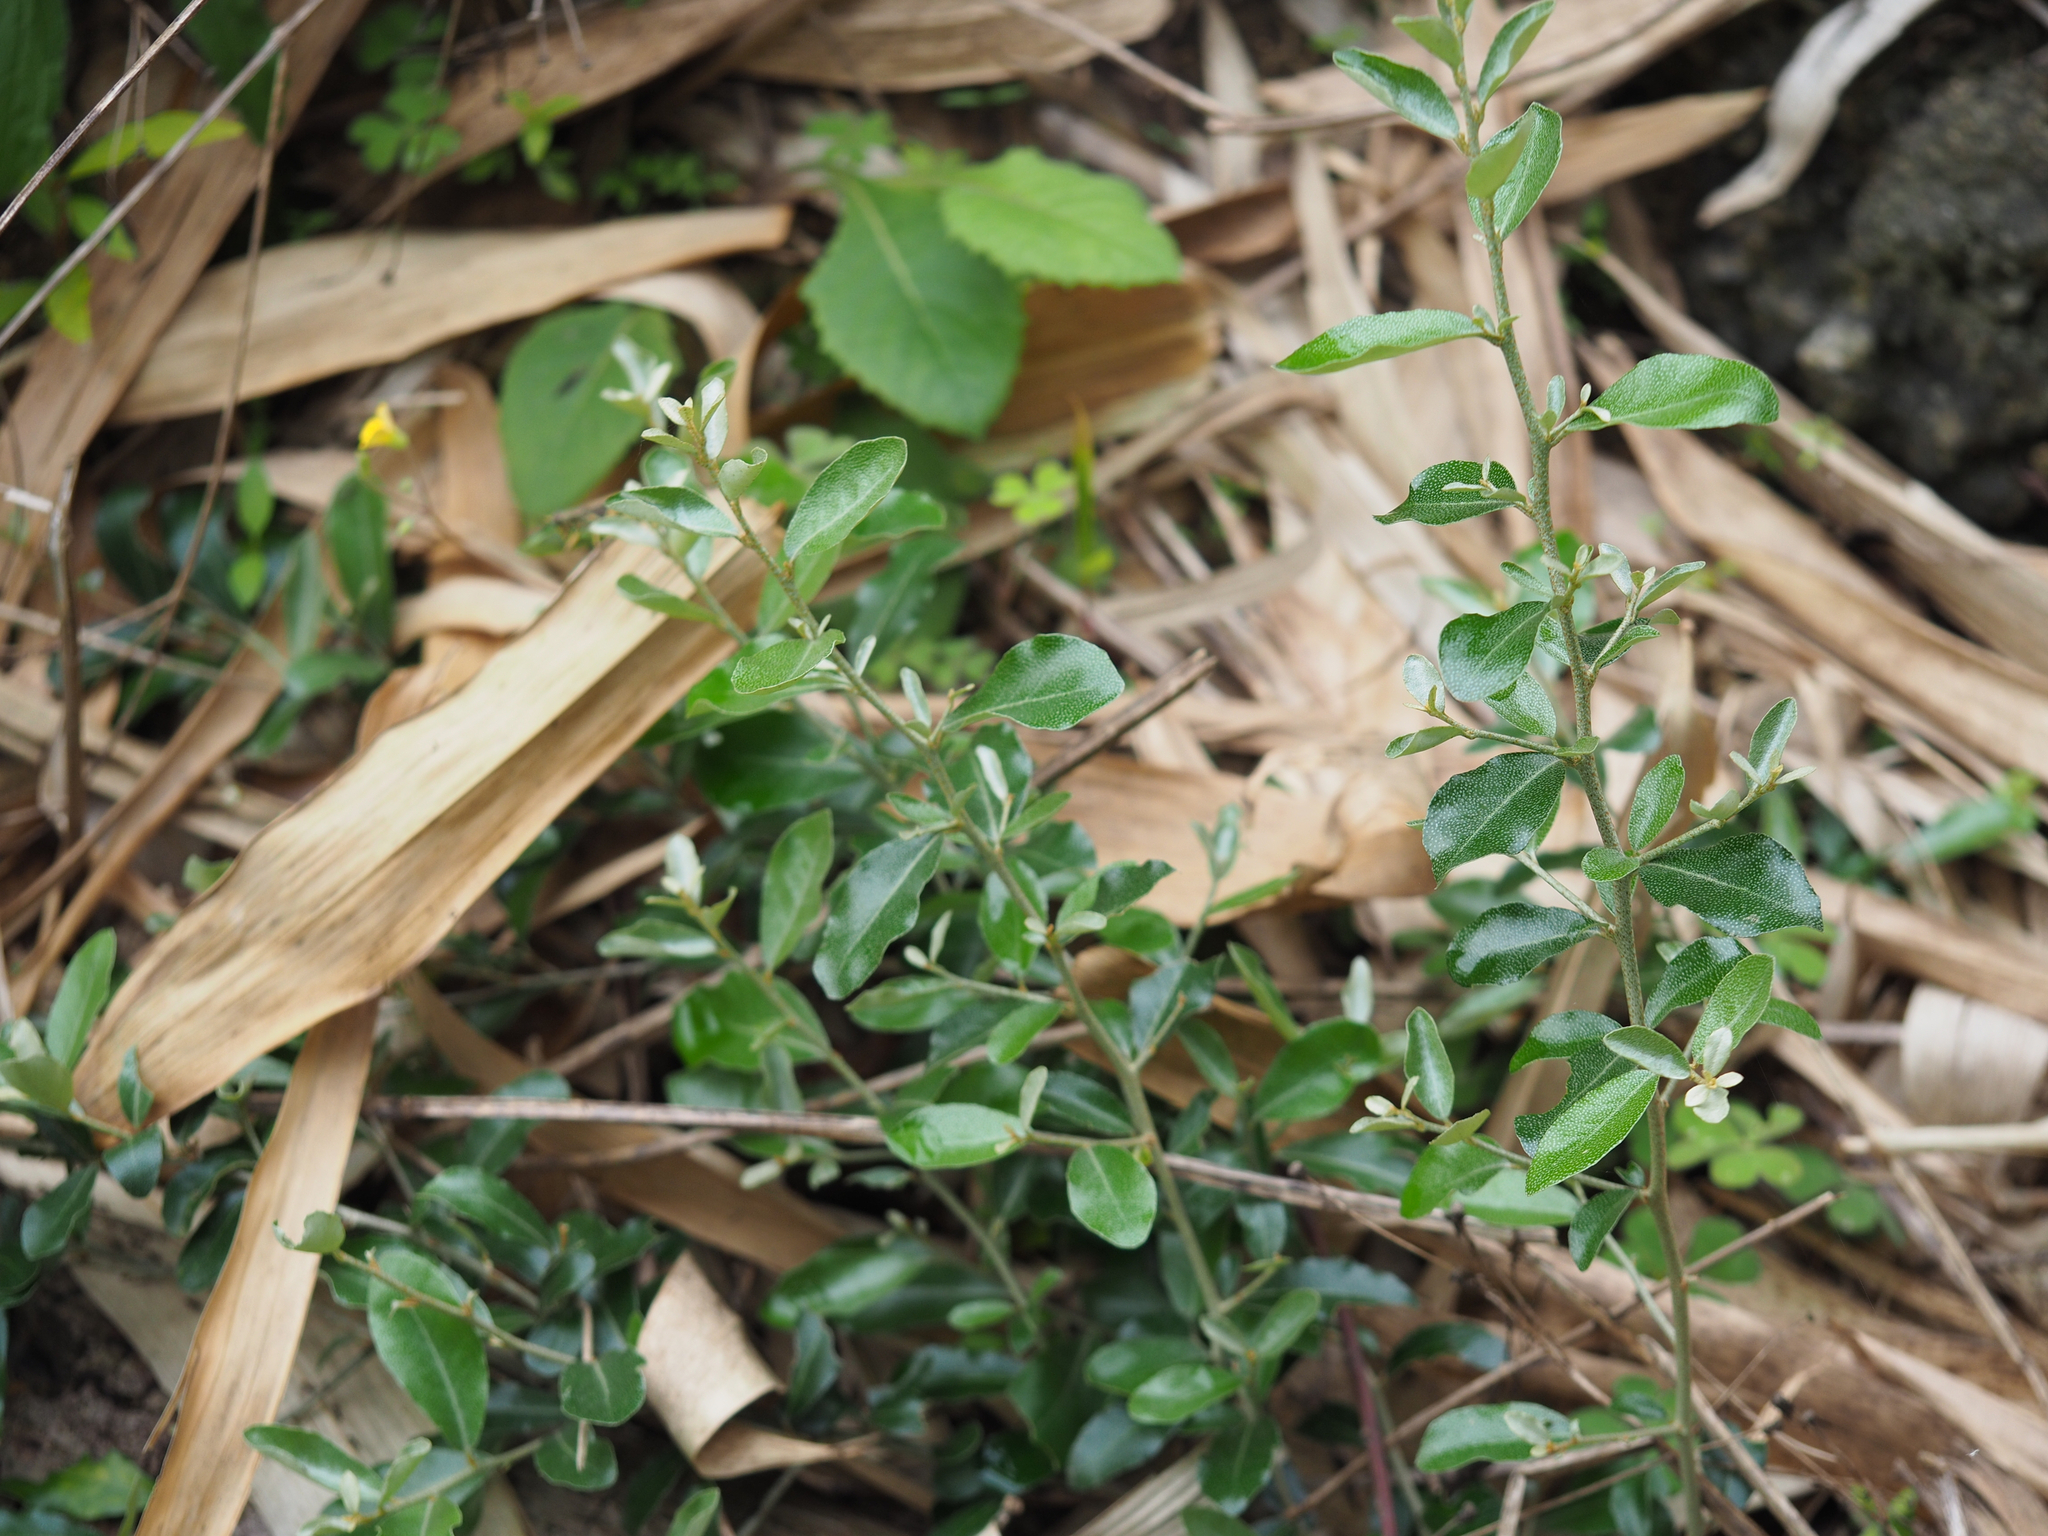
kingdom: Plantae
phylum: Tracheophyta
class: Magnoliopsida
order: Rosales
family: Elaeagnaceae
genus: Elaeagnus
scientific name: Elaeagnus oldhamii
